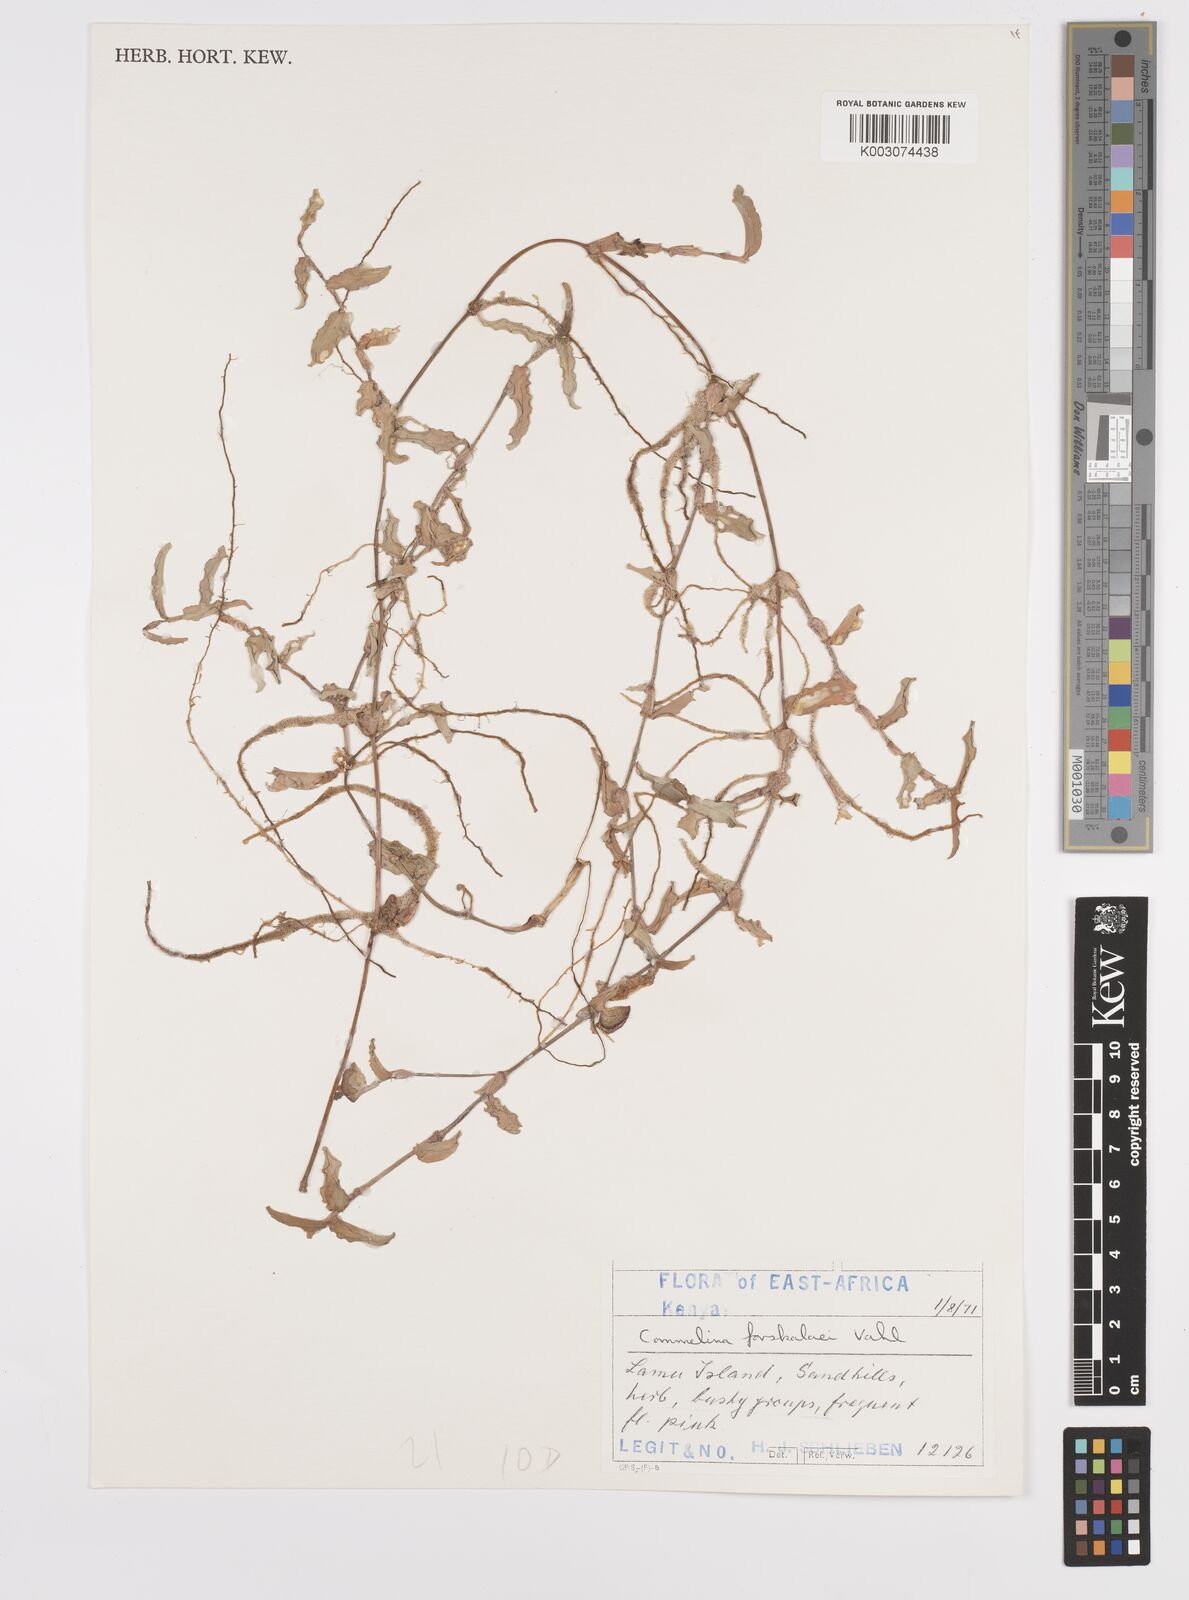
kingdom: Plantae
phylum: Tracheophyta
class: Liliopsida
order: Commelinales
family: Commelinaceae
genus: Commelina
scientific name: Commelina forskaolii
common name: Rat's ear
